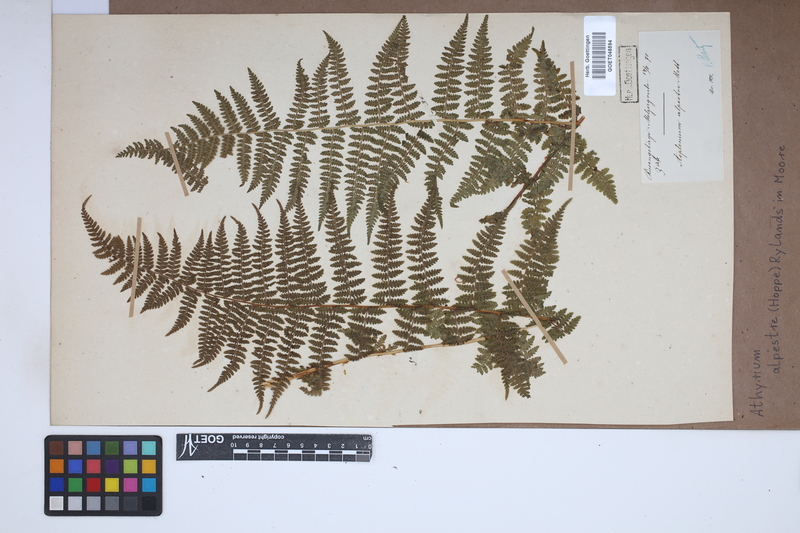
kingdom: Plantae
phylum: Tracheophyta
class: Polypodiopsida
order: Polypodiales
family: Athyriaceae
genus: Pseudathyrium
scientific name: Pseudathyrium alpestre
